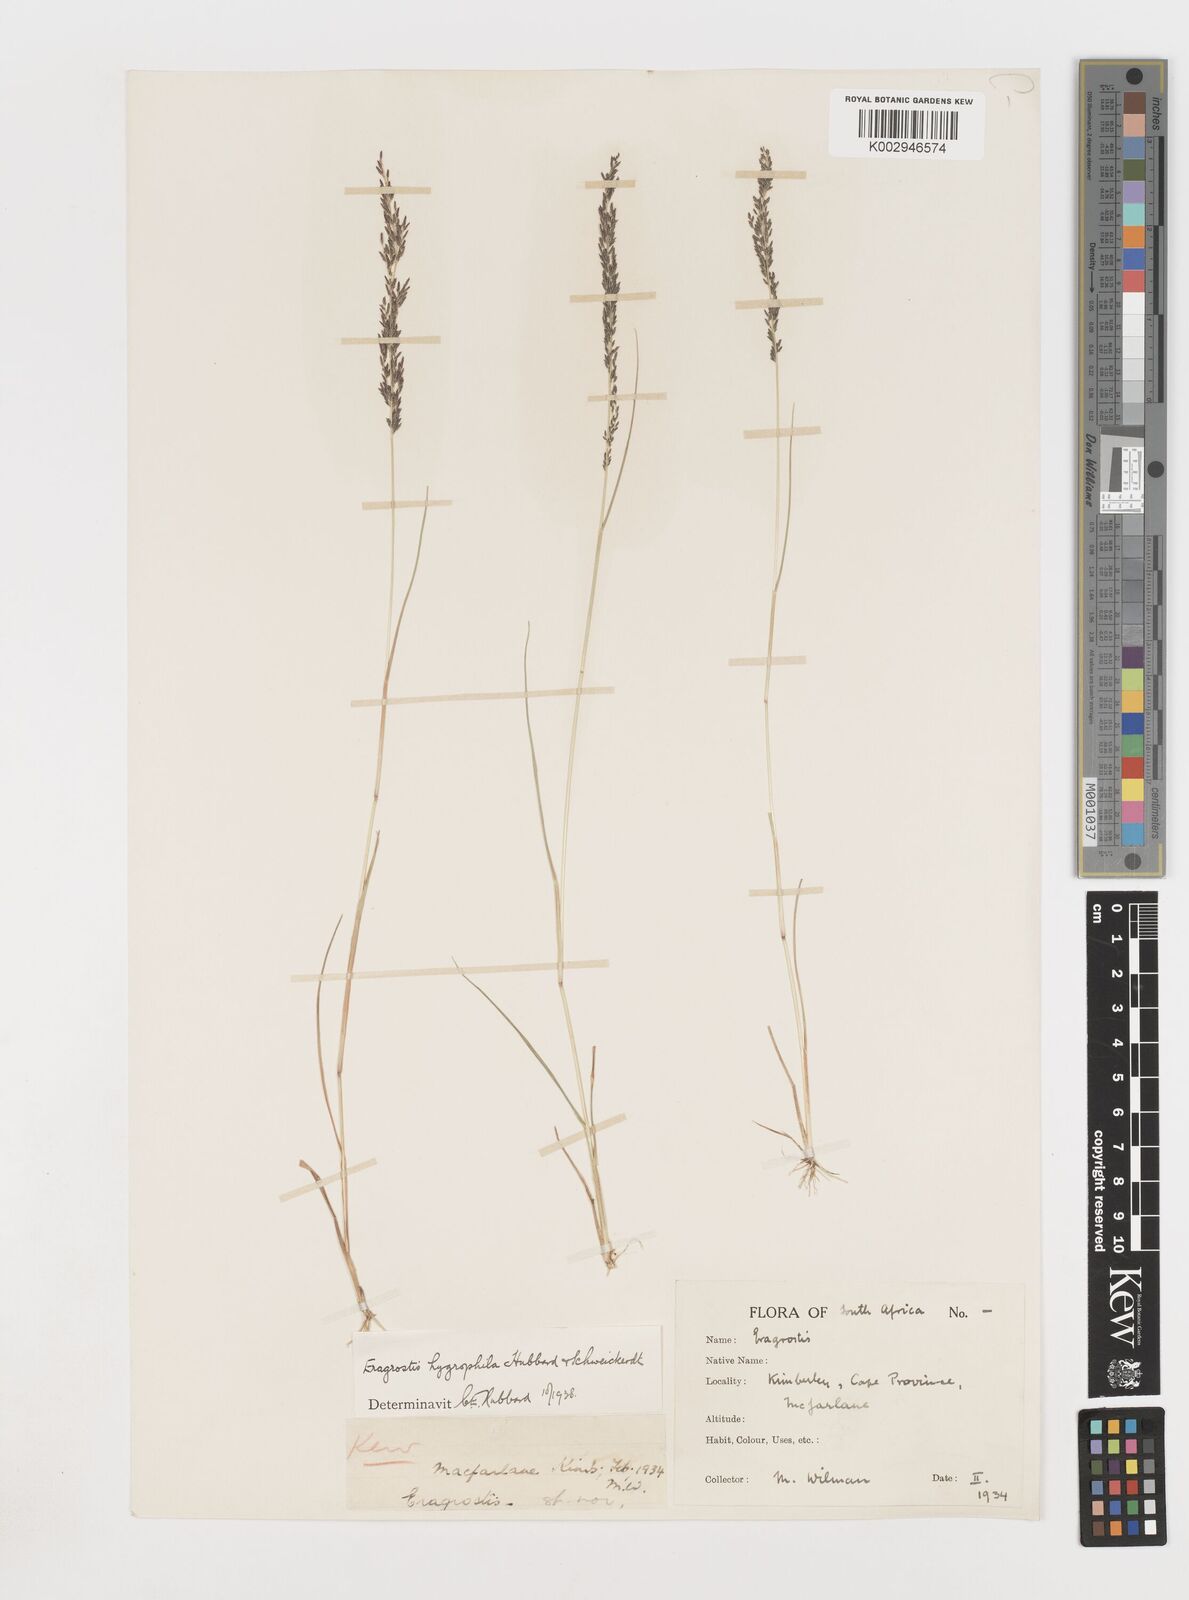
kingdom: Plantae
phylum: Tracheophyta
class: Liliopsida
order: Poales
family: Poaceae
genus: Eragrostis
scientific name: Eragrostis homomalla
